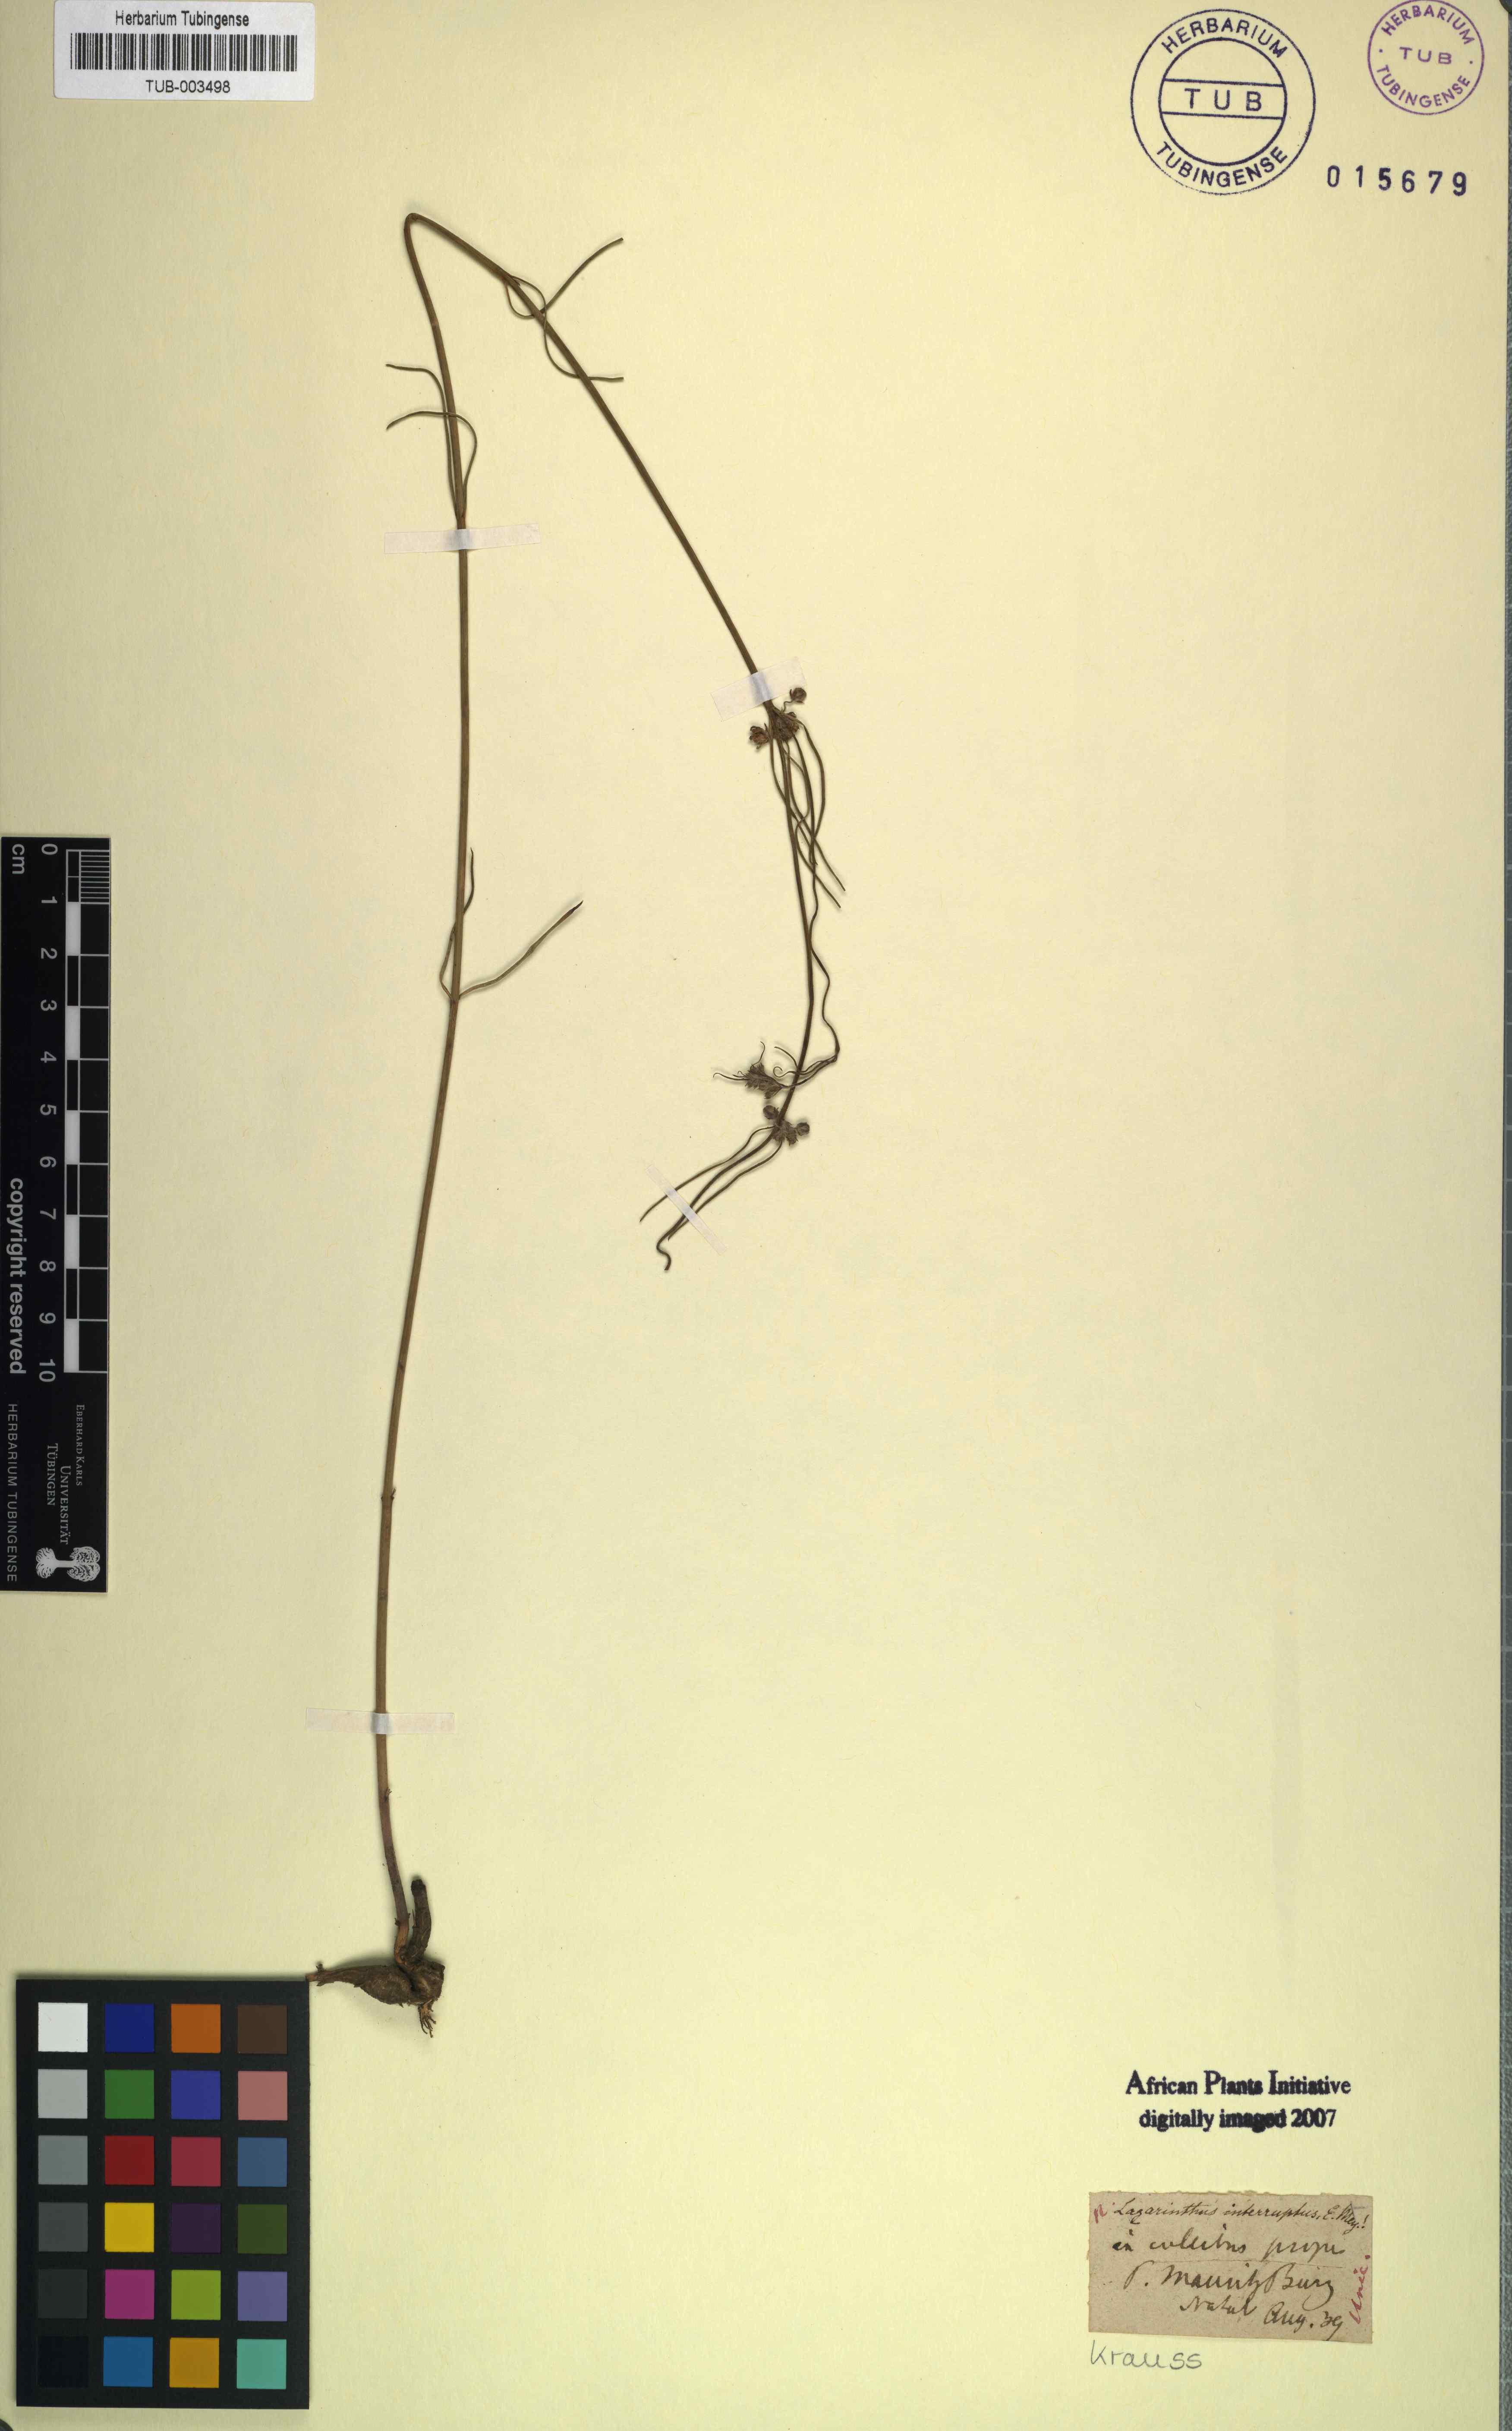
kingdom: Plantae
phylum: Tracheophyta
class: Magnoliopsida
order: Gentianales
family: Apocynaceae
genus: Aspidoglossum
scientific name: Aspidoglossum interruptum
